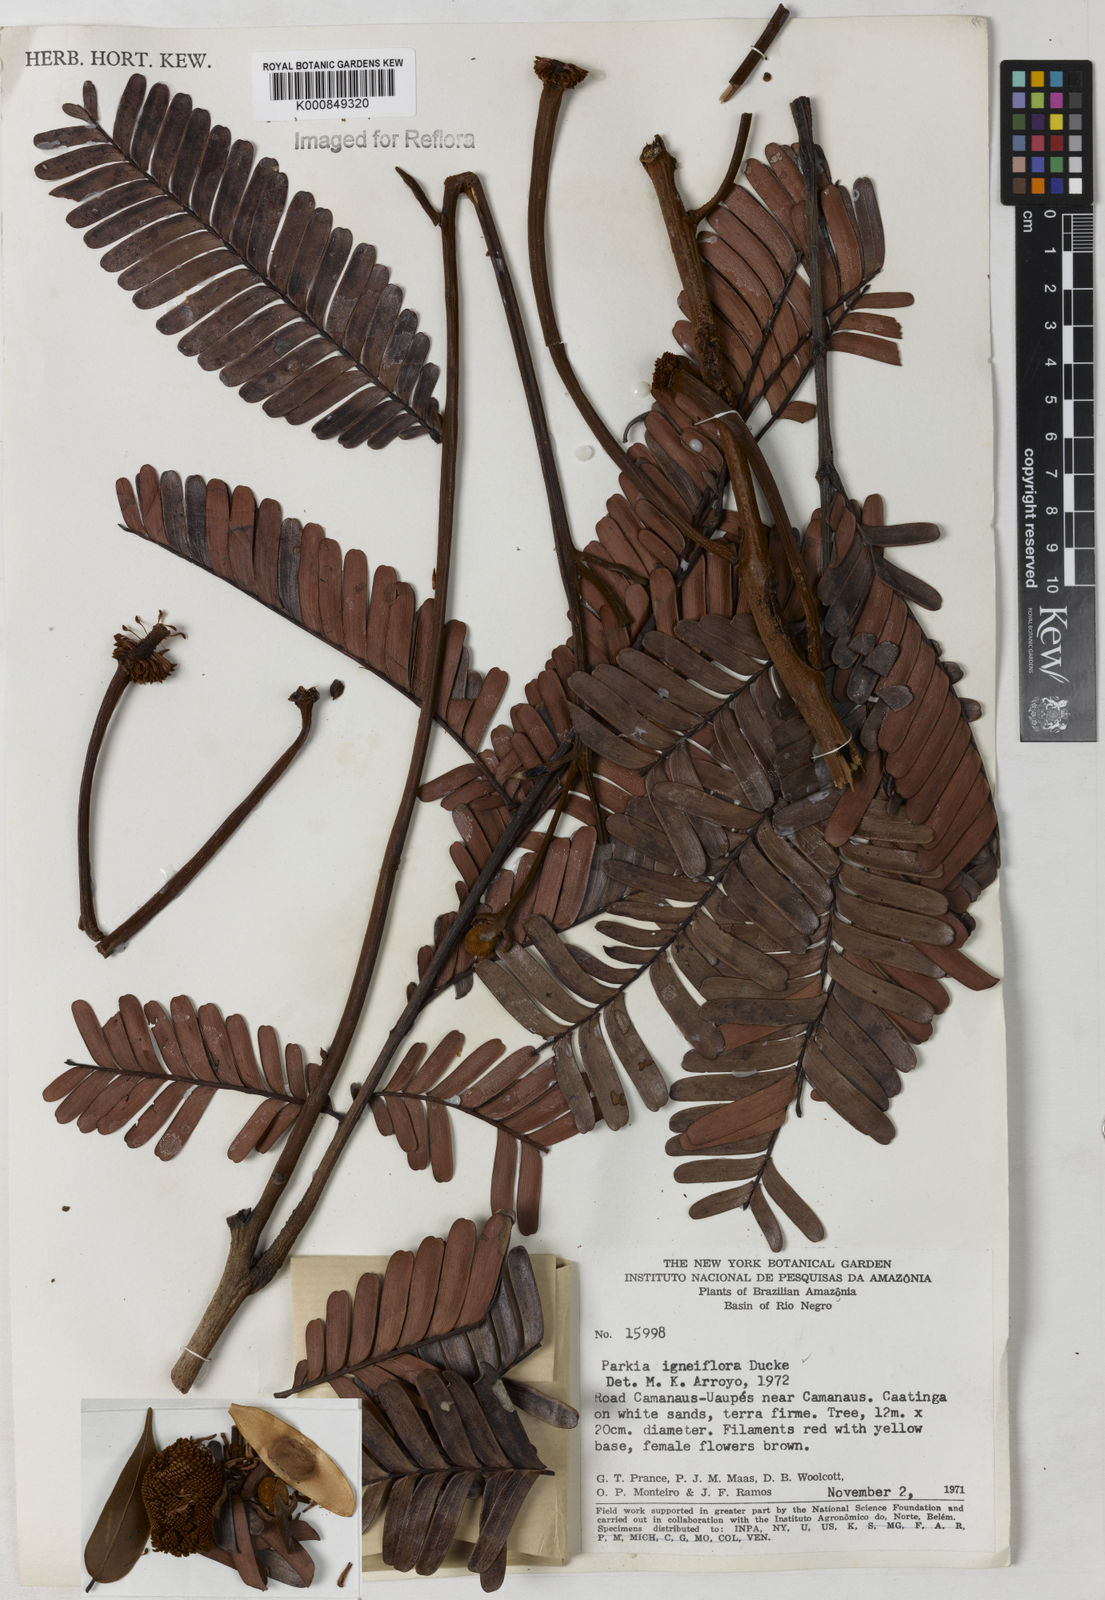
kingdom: Plantae
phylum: Tracheophyta
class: Magnoliopsida
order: Fabales
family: Fabaceae
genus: Parkia
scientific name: Parkia igneiflora
